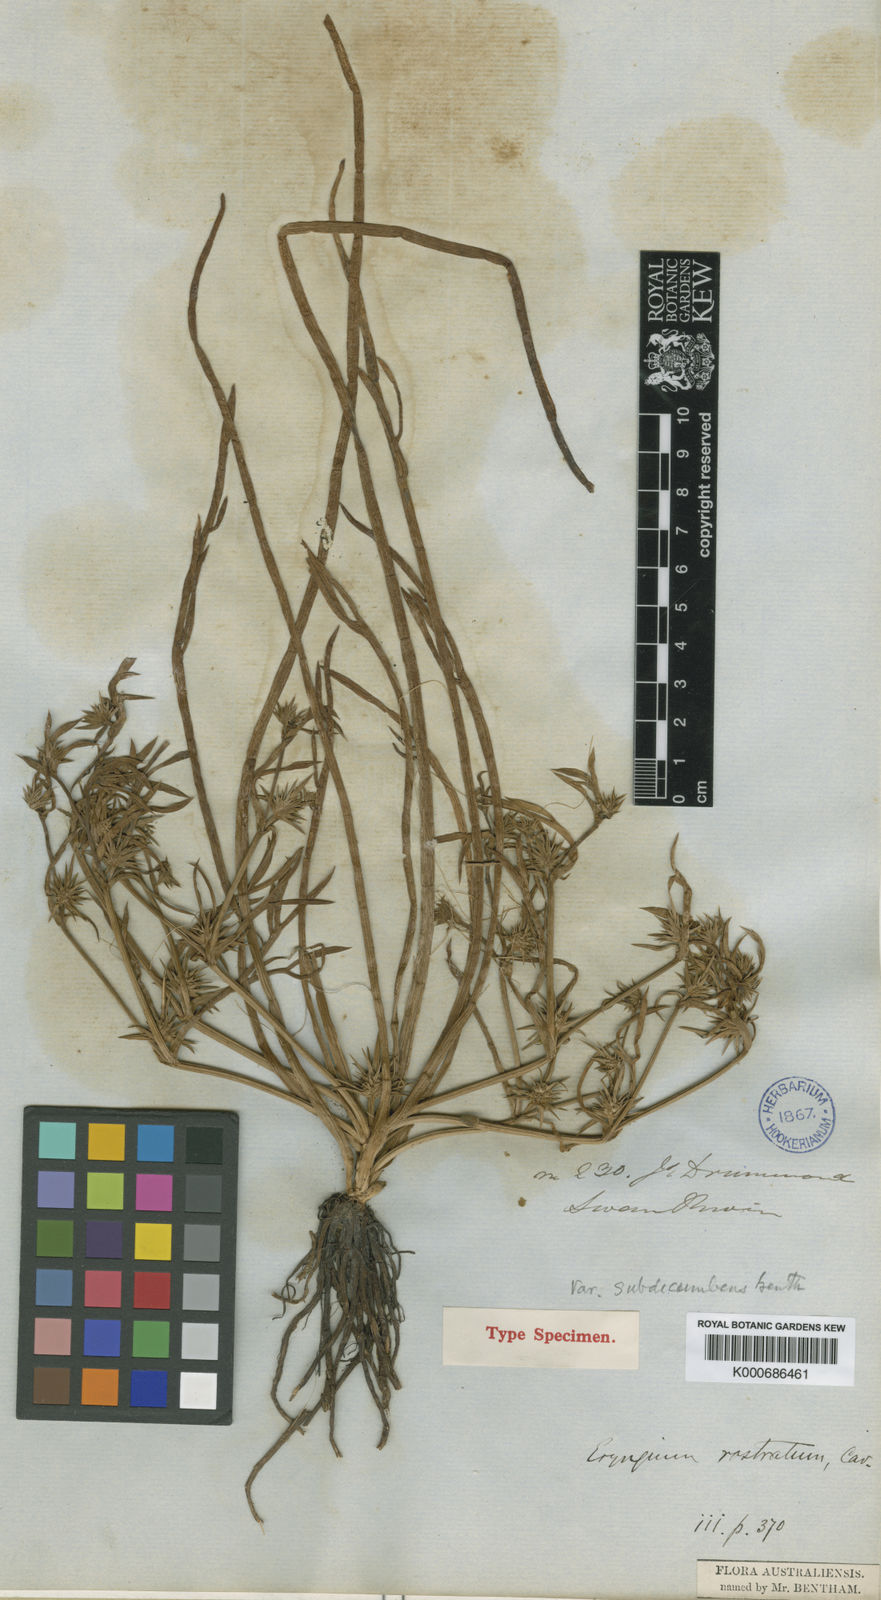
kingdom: Plantae
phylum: Tracheophyta
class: Magnoliopsida
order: Apiales
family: Apiaceae
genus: Eryngium
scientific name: Eryngium rostratum
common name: Blue eryngo
